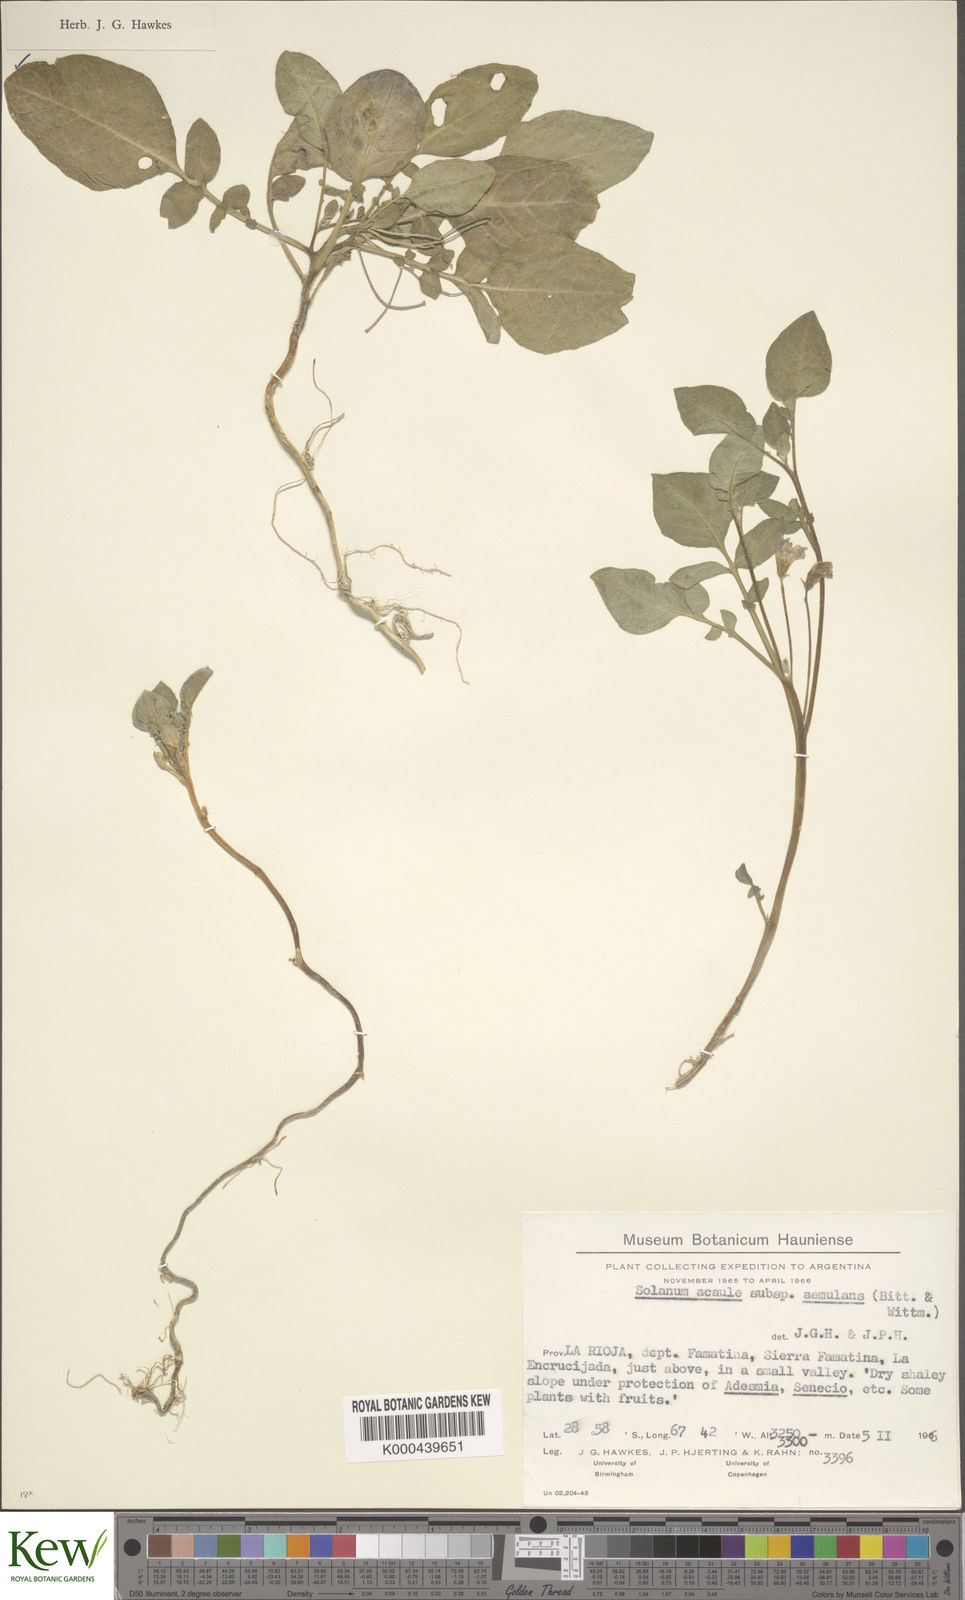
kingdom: Plantae
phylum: Tracheophyta
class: Magnoliopsida
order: Solanales
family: Solanaceae
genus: Solanum
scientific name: Solanum aemulans
